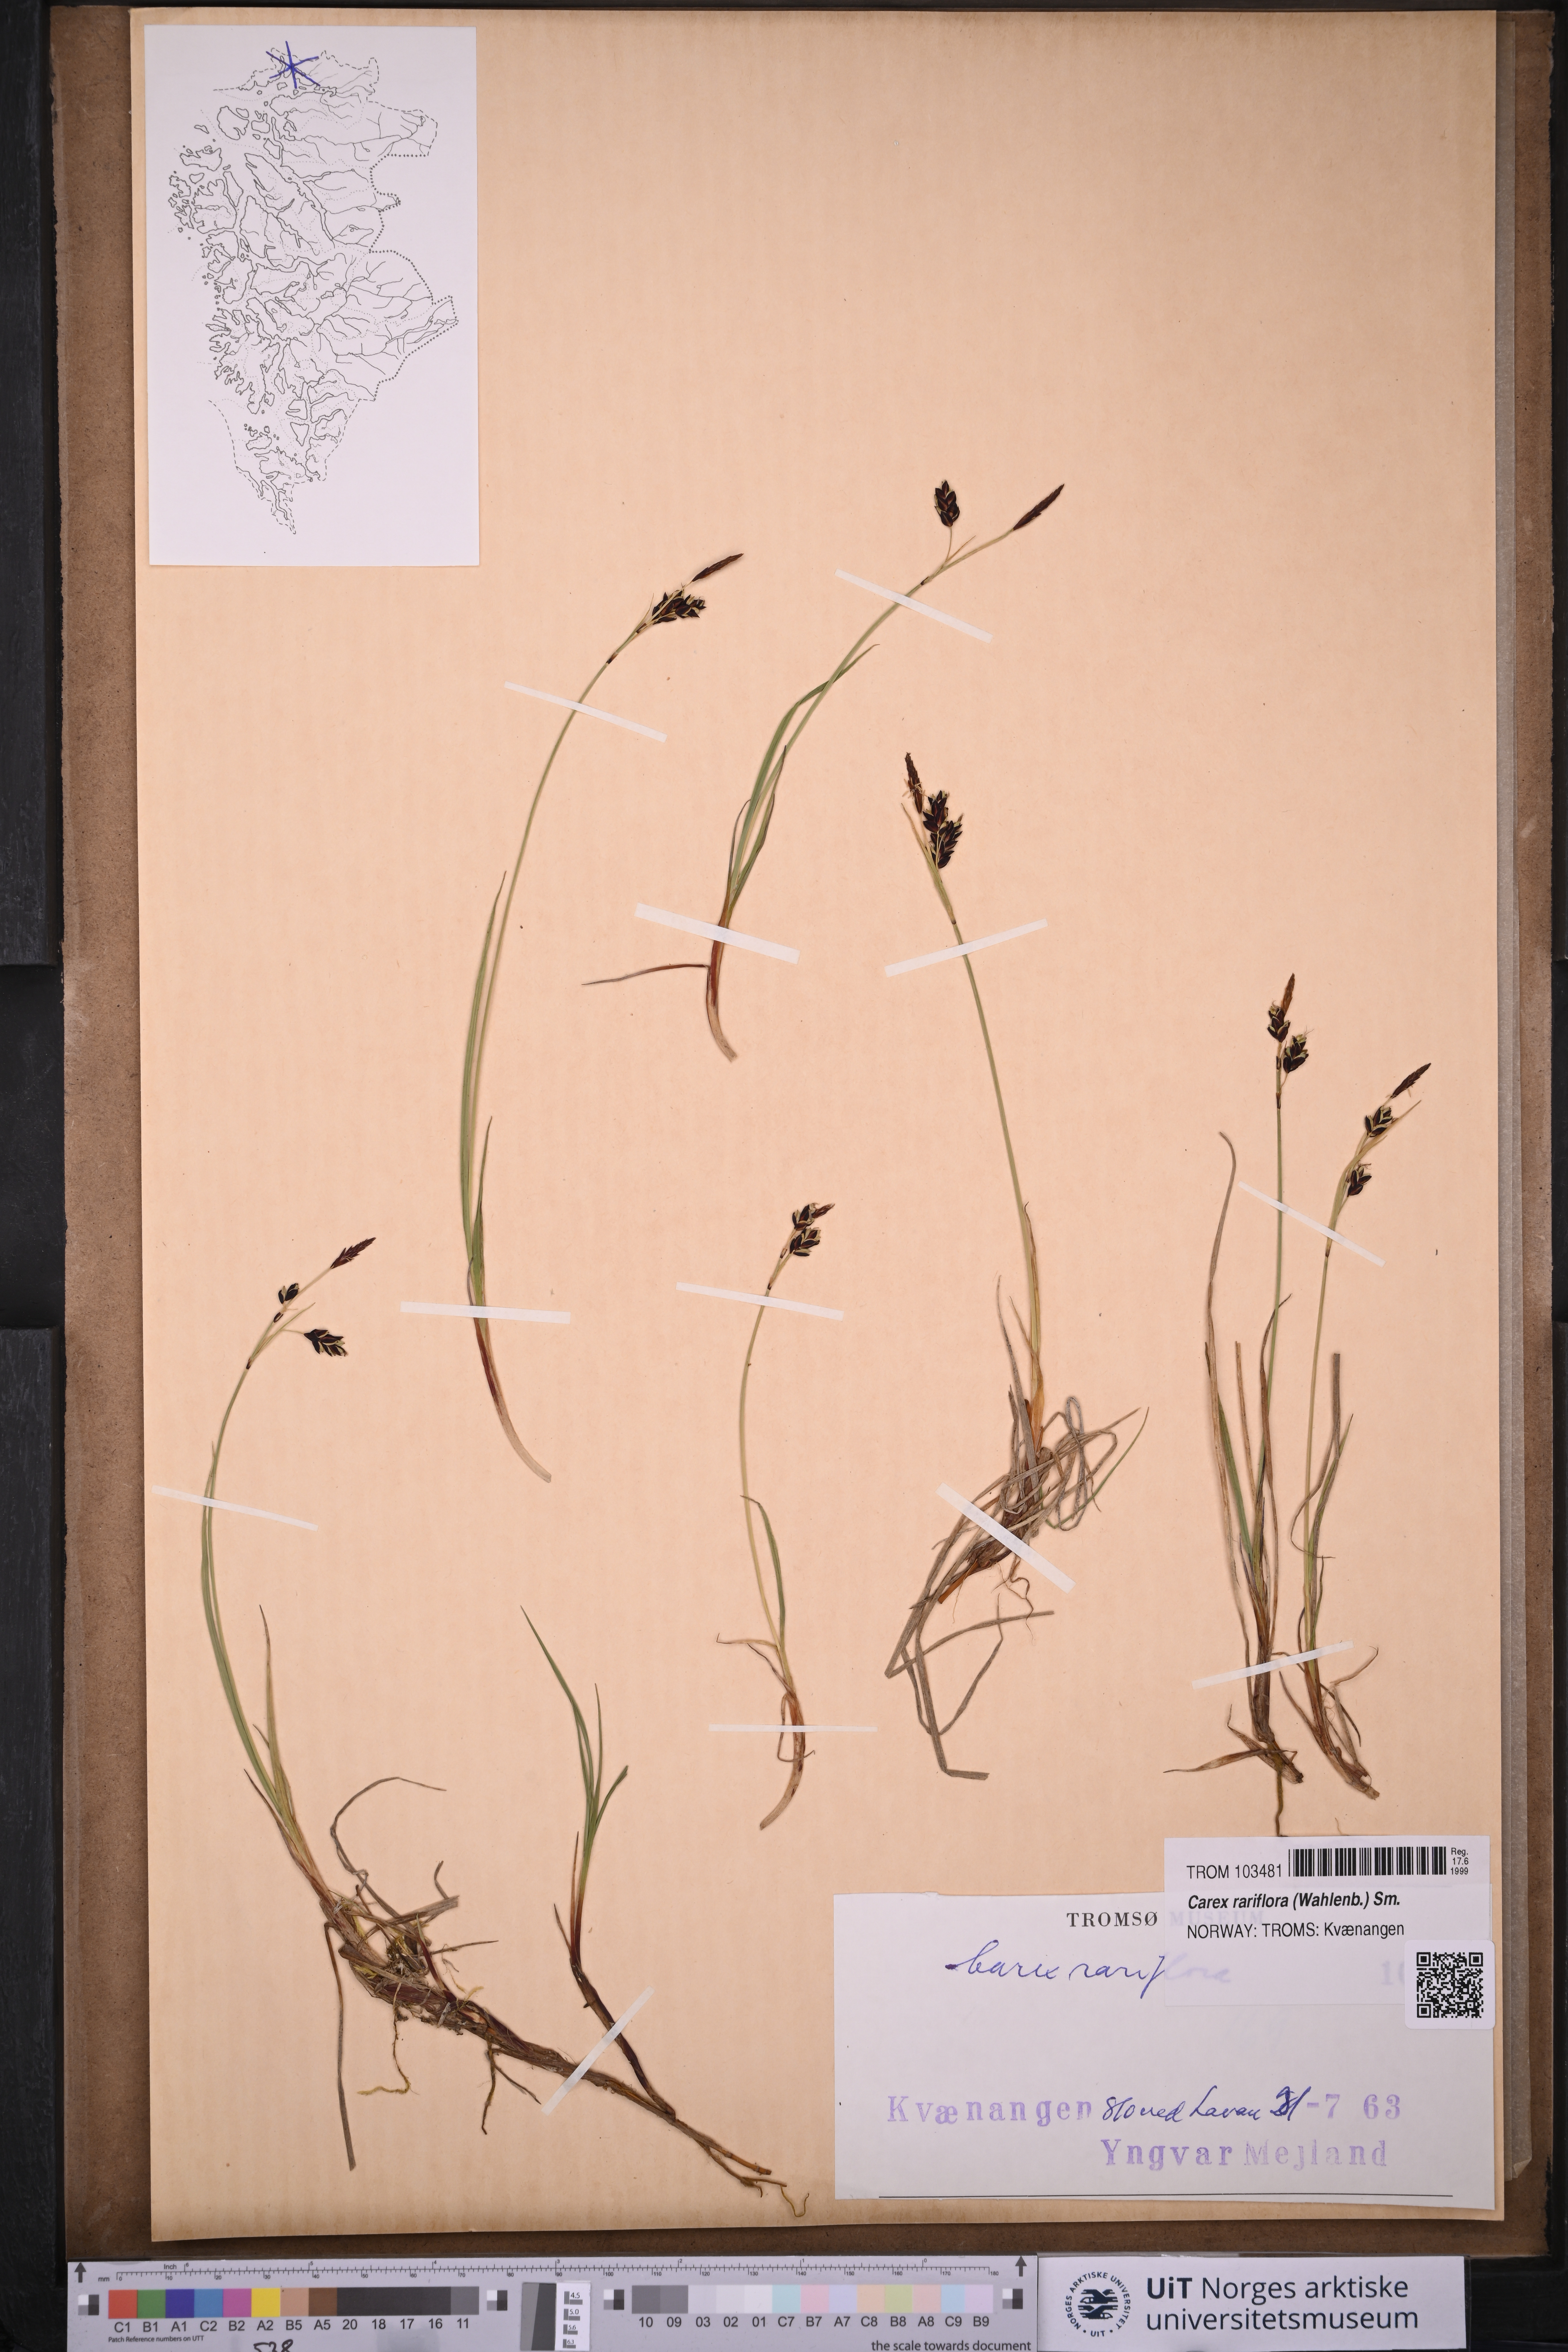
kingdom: Plantae
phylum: Tracheophyta
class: Liliopsida
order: Poales
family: Cyperaceae
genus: Carex
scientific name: Carex rariflora
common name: Loose-flowered alpine sedge
